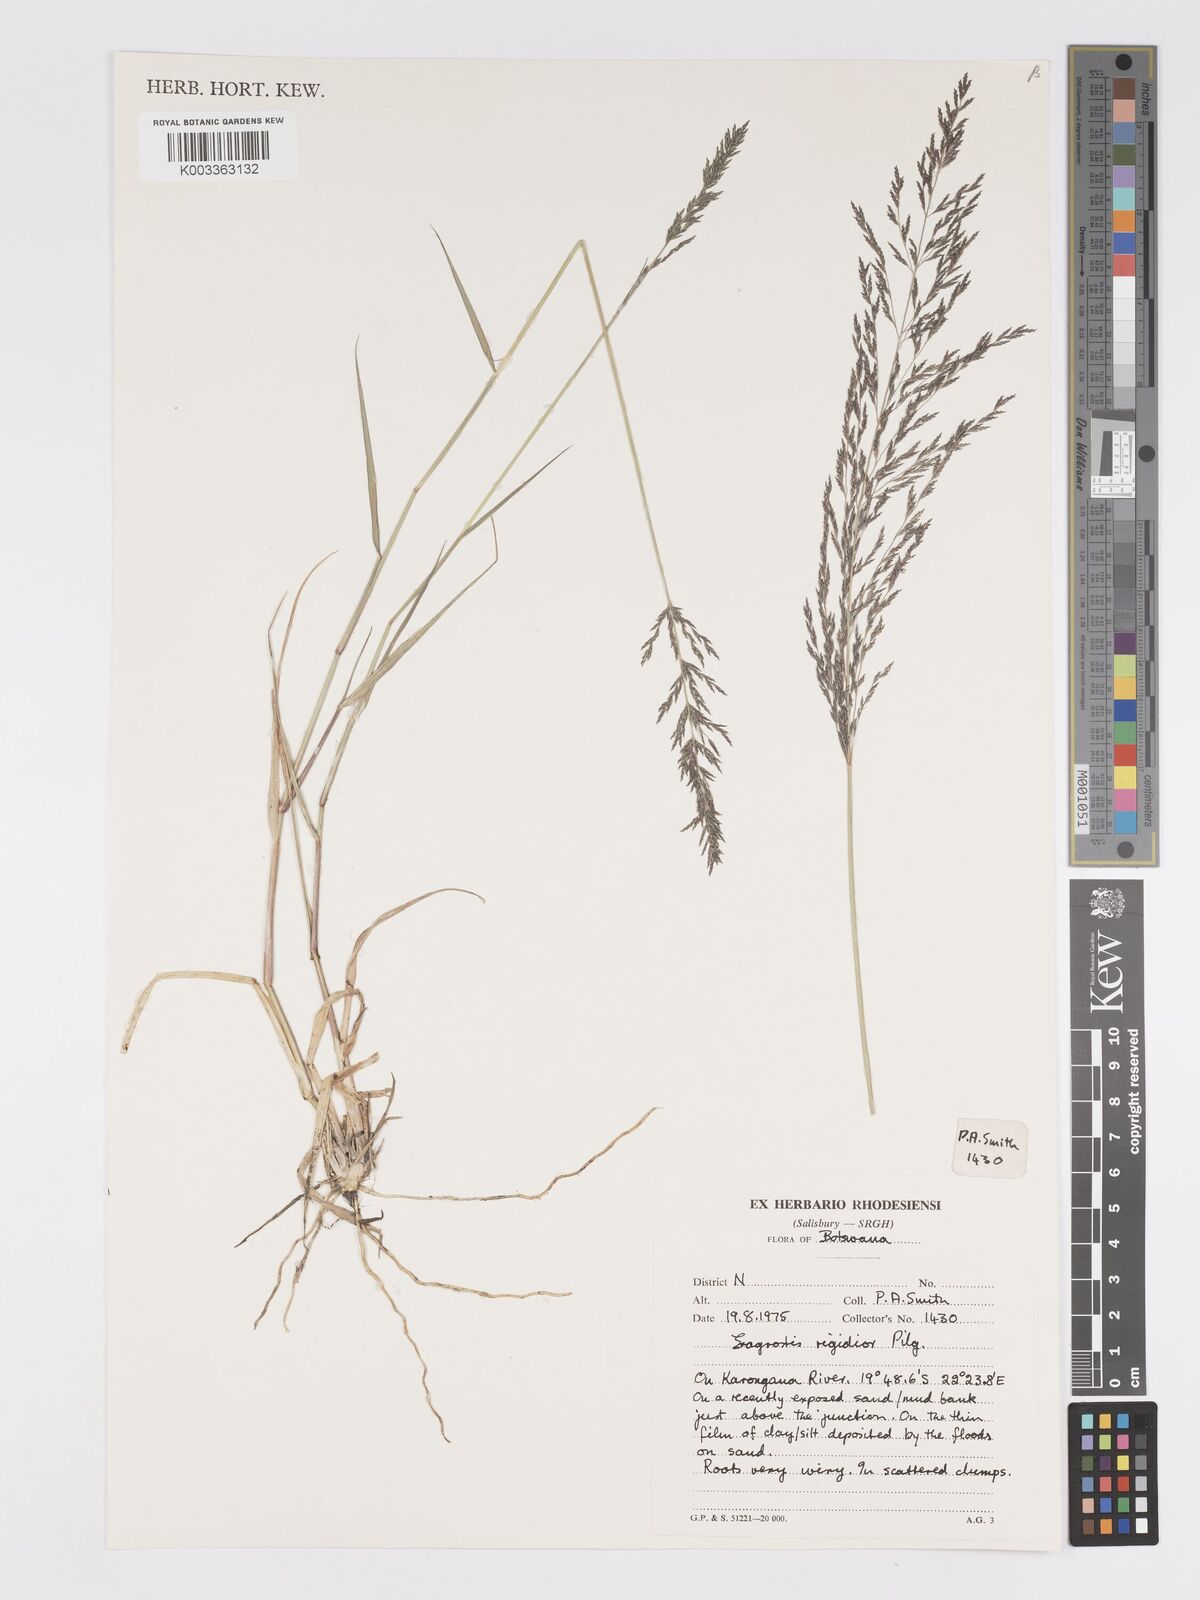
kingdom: Plantae
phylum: Tracheophyta
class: Liliopsida
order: Poales
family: Poaceae
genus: Eragrostis
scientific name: Eragrostis cylindriflora
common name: Cylinderflower lovegrass
